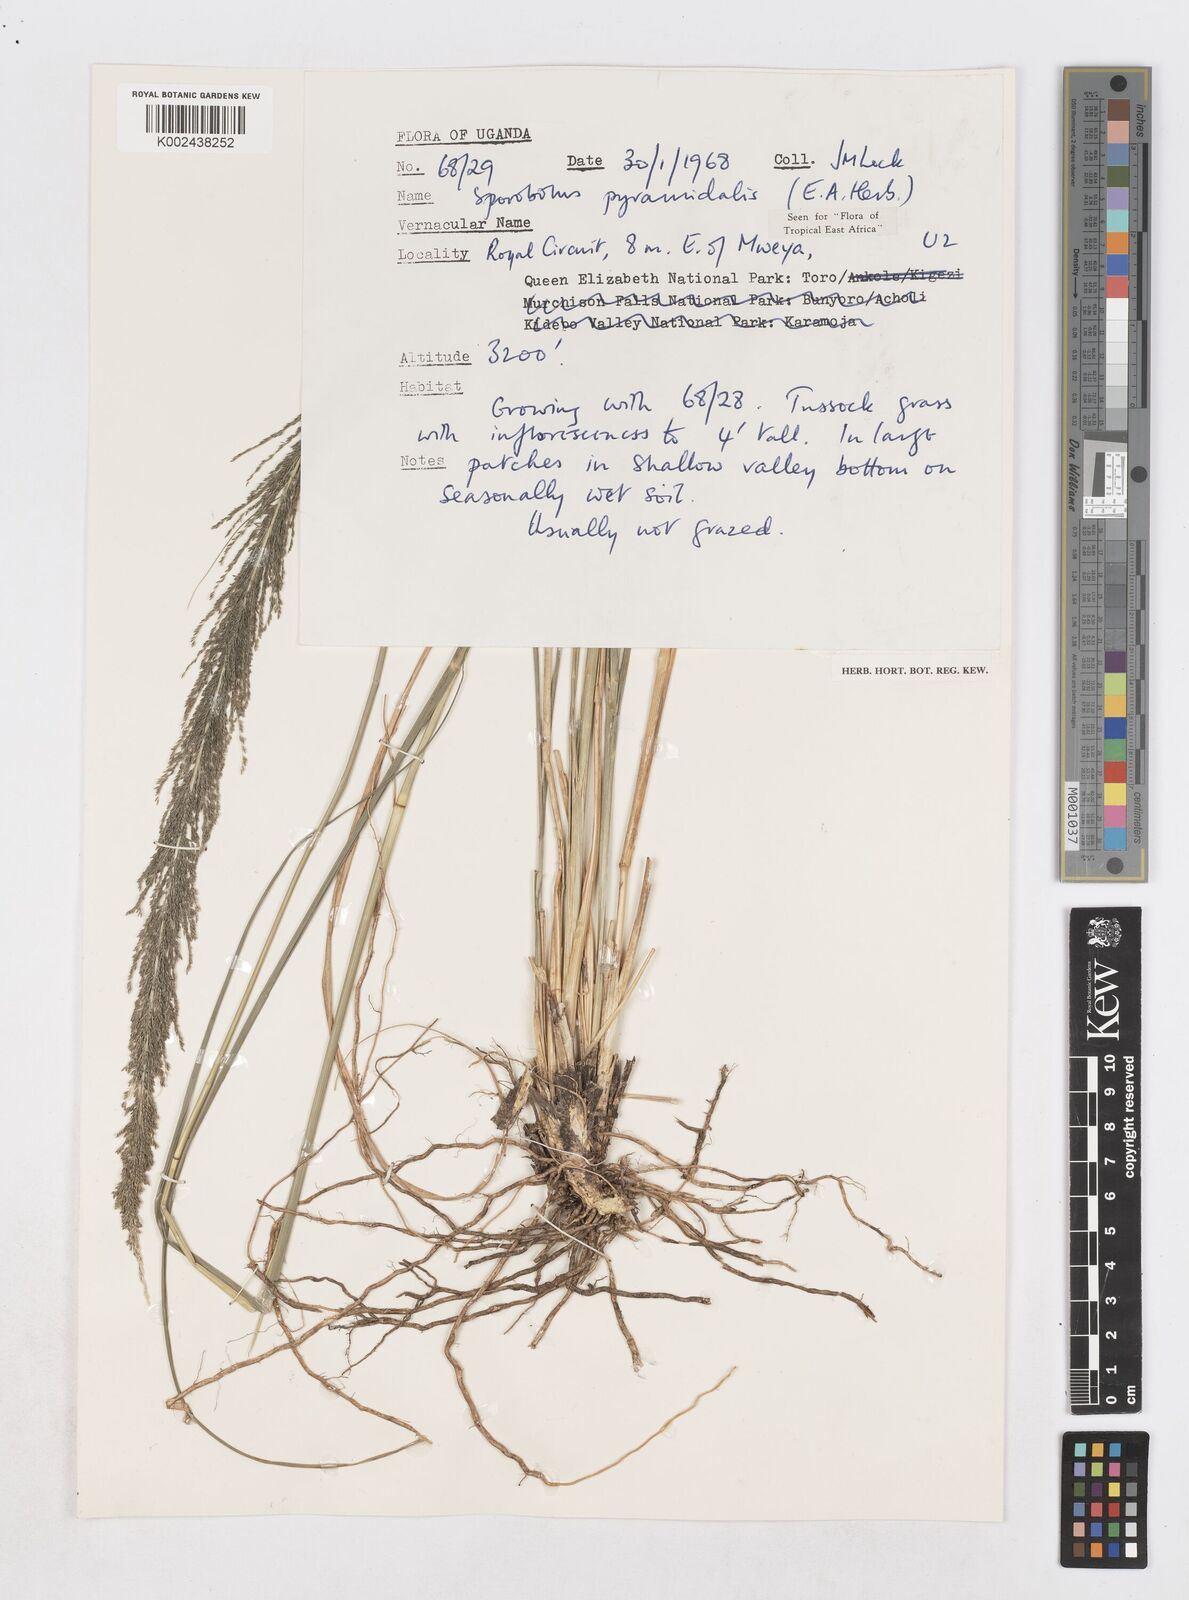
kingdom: Plantae
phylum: Tracheophyta
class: Liliopsida
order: Poales
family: Poaceae
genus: Sporobolus
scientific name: Sporobolus pyramidalis
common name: West indian dropseed
